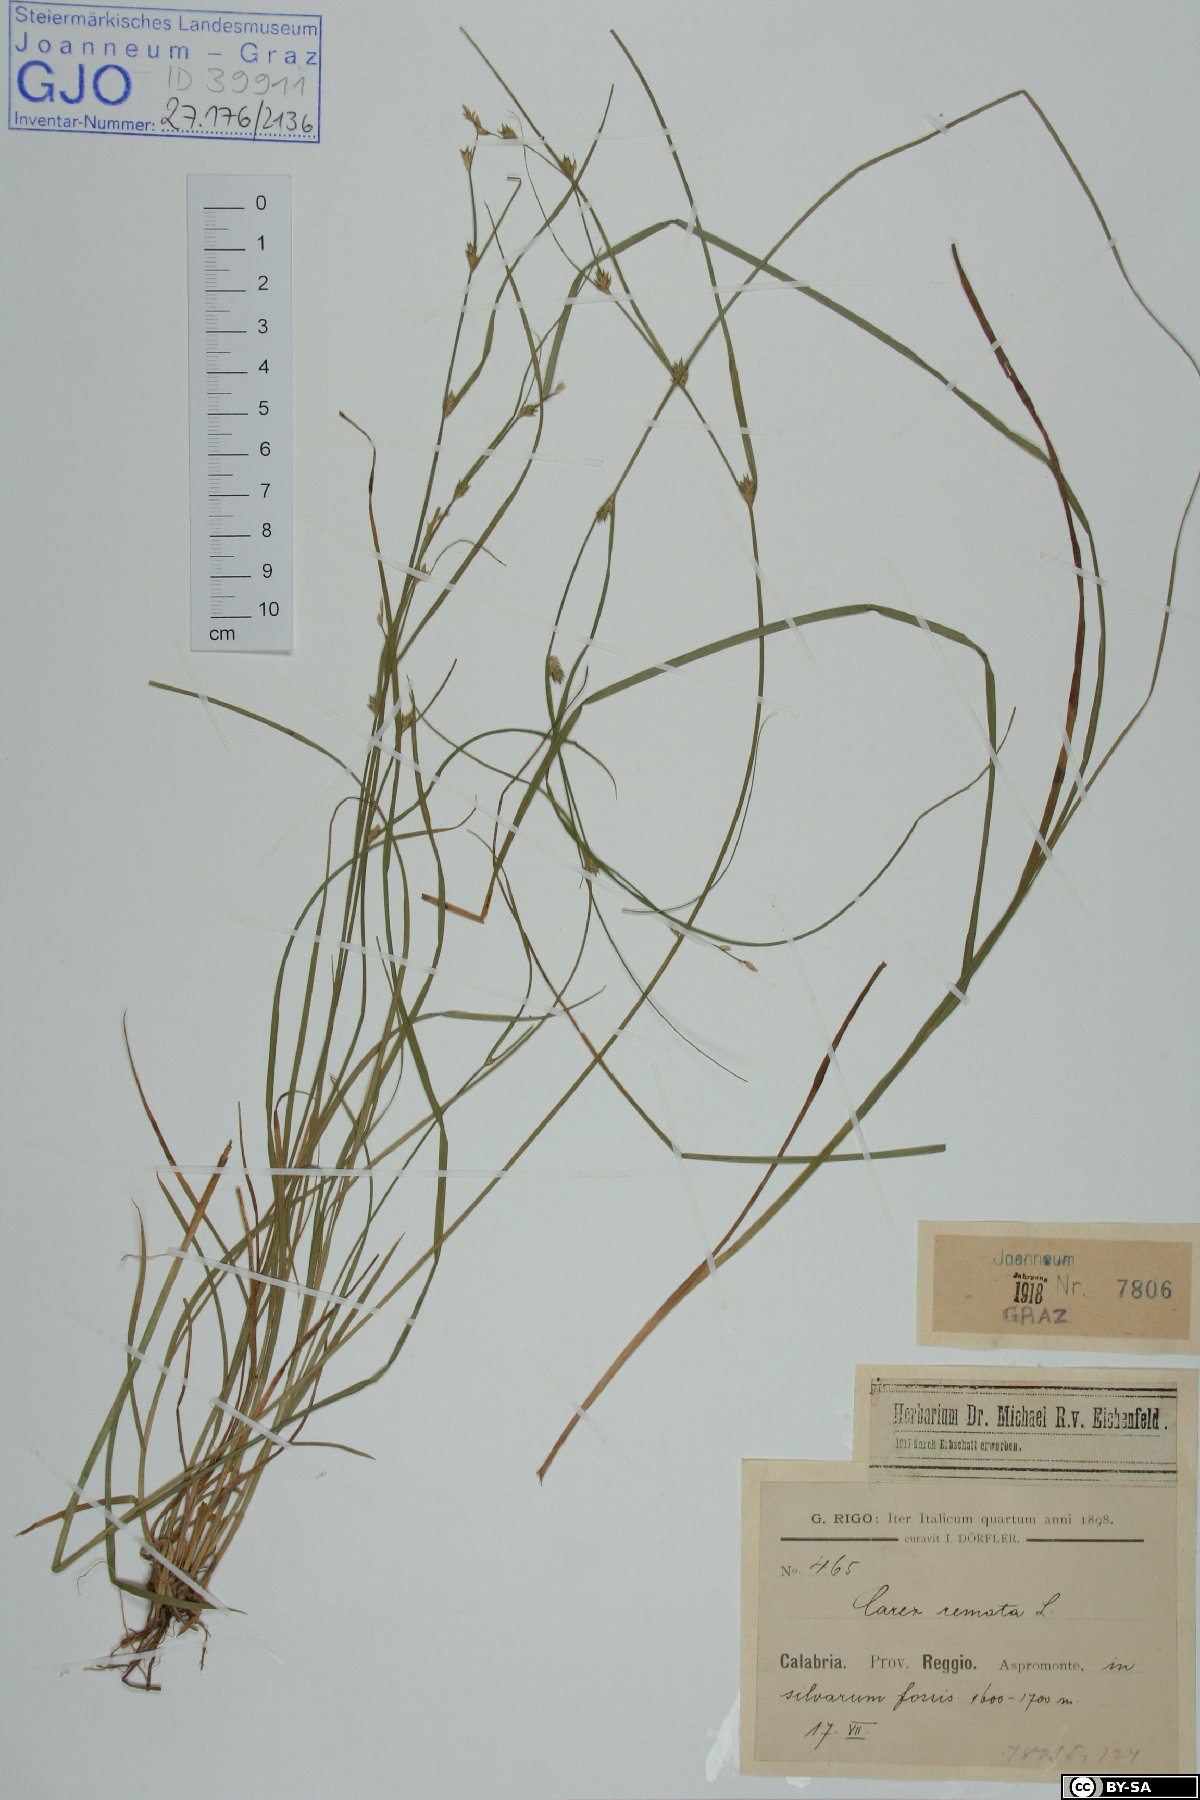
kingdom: Plantae
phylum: Tracheophyta
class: Liliopsida
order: Poales
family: Cyperaceae
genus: Carex
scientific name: Carex remota
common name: Remote sedge
